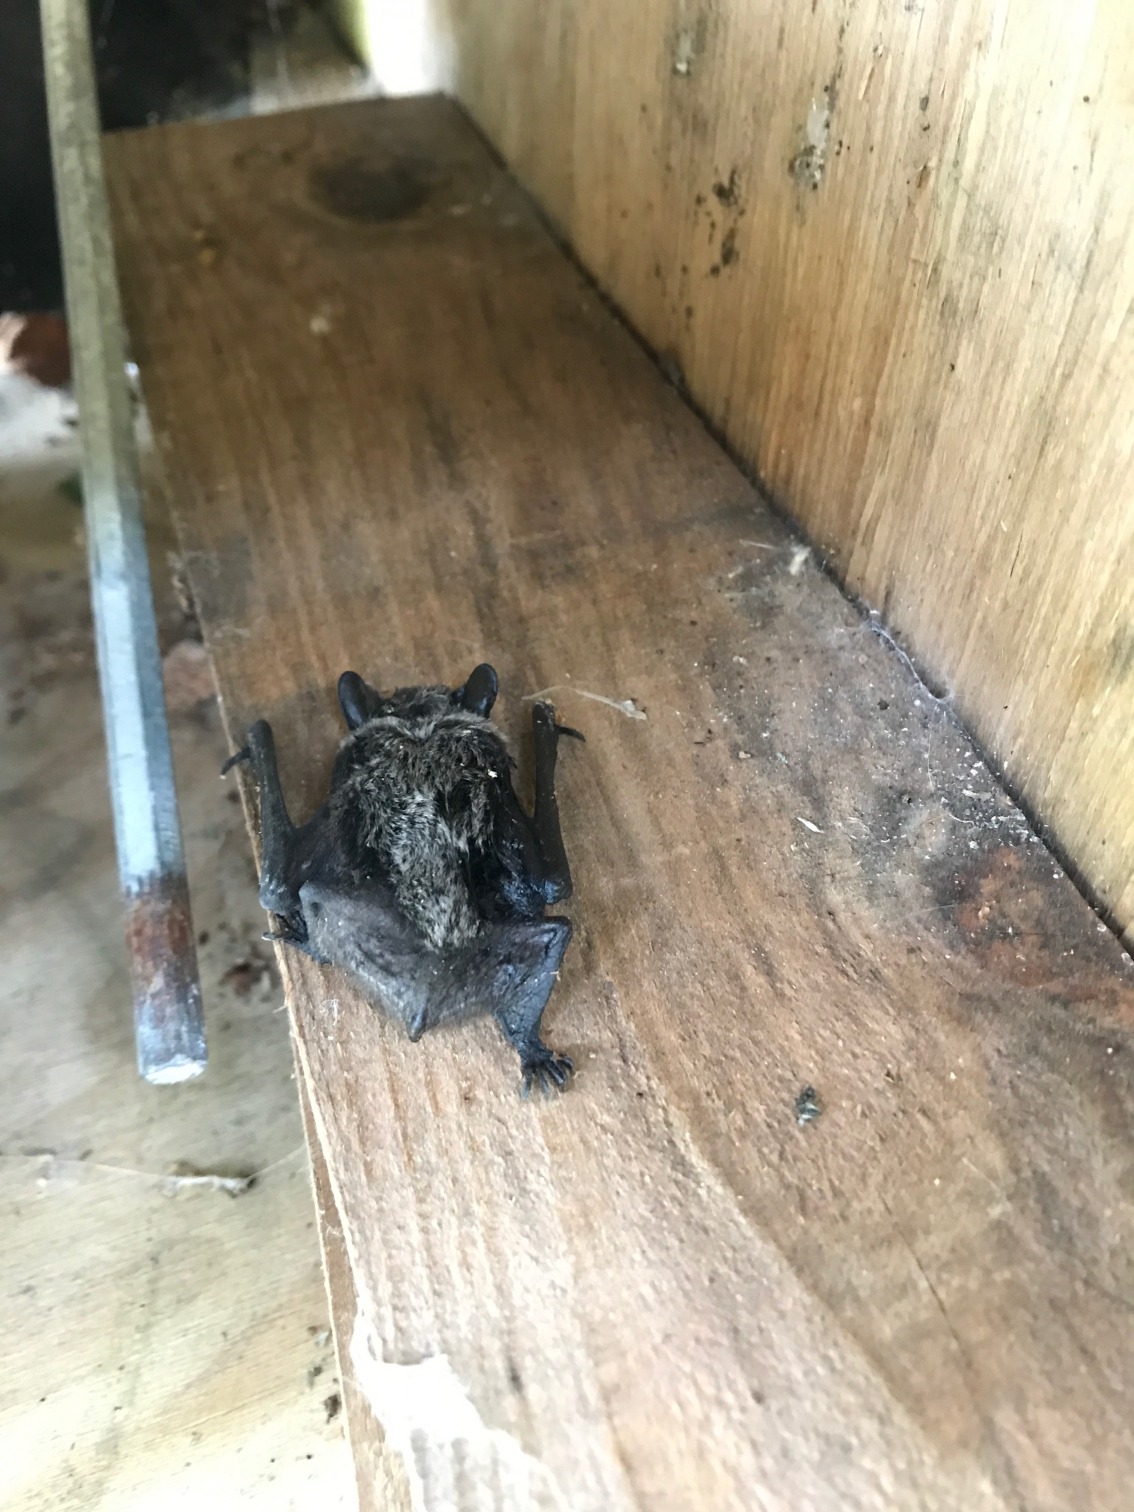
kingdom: Animalia
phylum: Chordata
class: Mammalia
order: Chiroptera
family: Vespertilionidae
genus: Vespertilio
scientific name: Vespertilio murinus
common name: Skimmelflagermus
